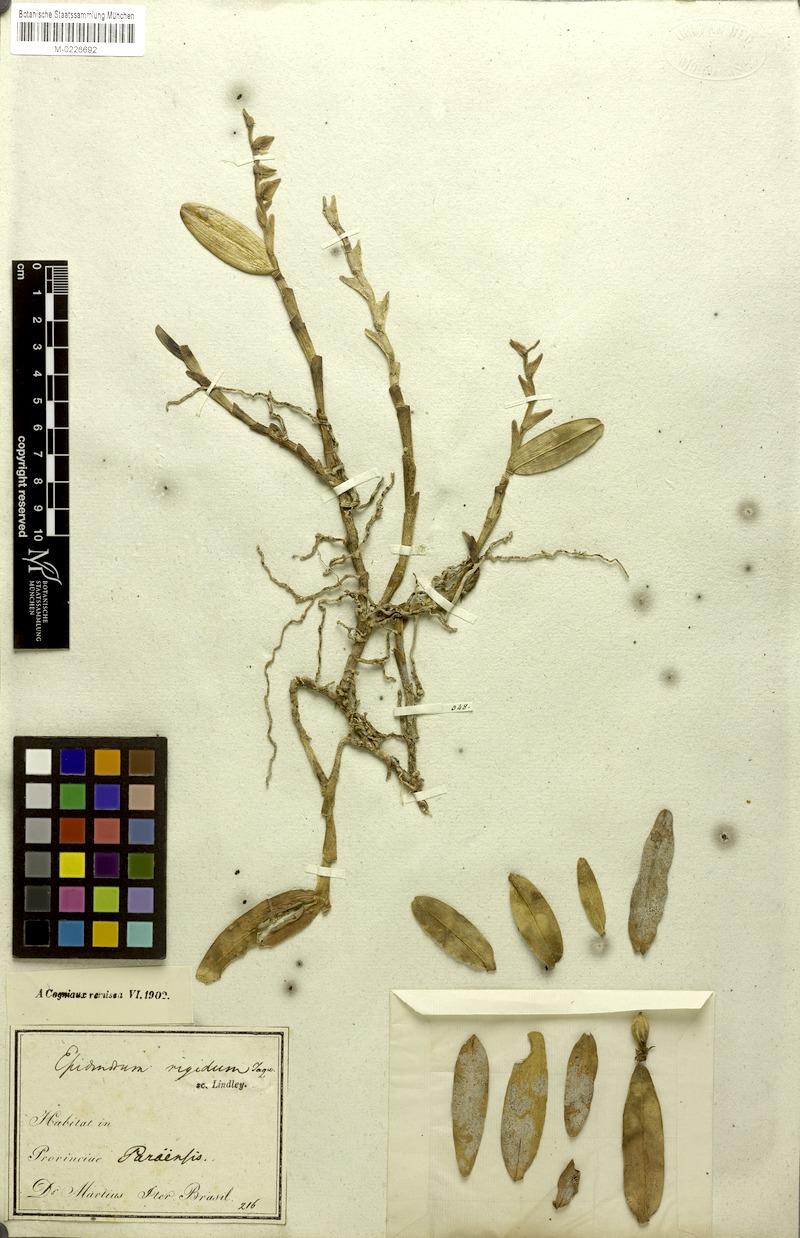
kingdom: Plantae
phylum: Tracheophyta
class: Liliopsida
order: Asparagales
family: Orchidaceae
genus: Epidendrum
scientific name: Epidendrum rigidum
